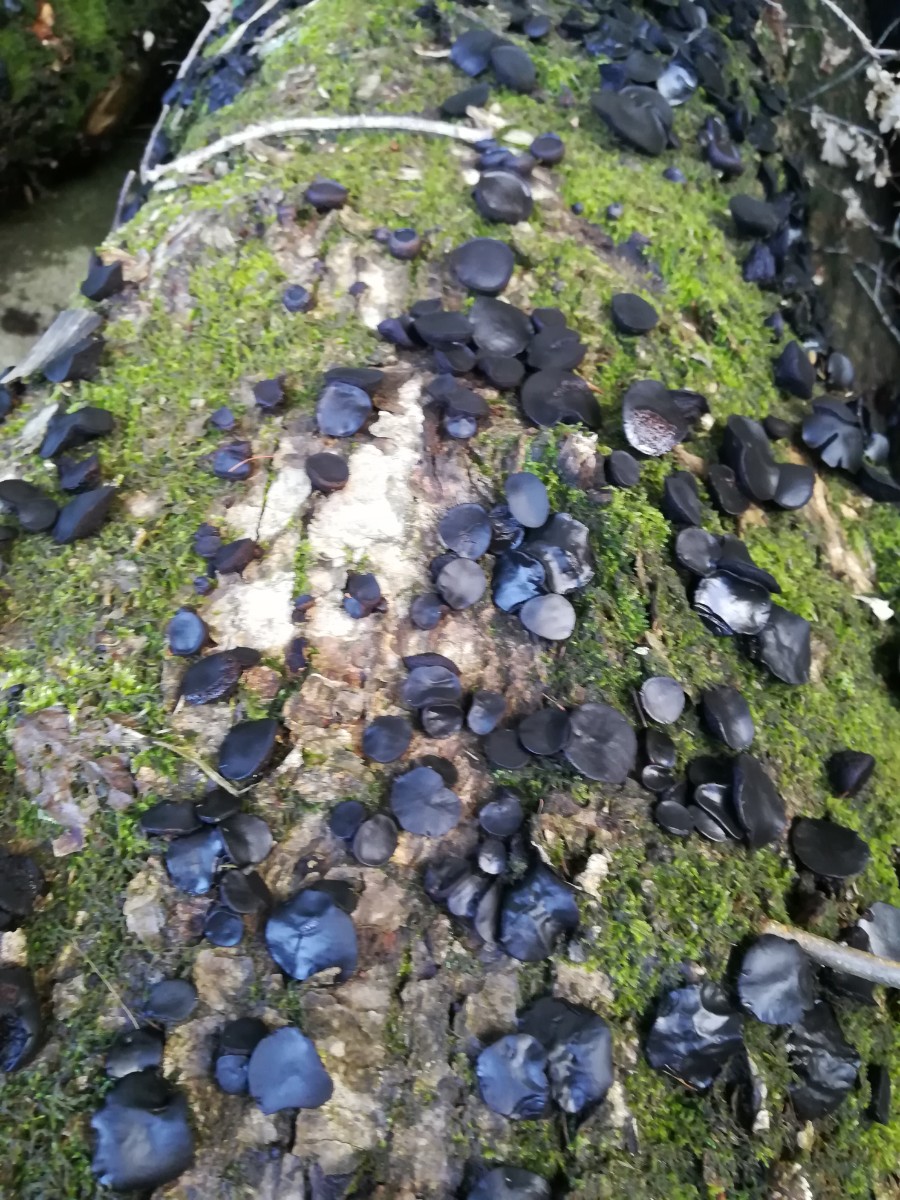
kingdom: Fungi
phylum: Ascomycota
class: Leotiomycetes
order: Phacidiales
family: Phacidiaceae
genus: Bulgaria
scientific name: Bulgaria inquinans
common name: afsmittende topsvamp
